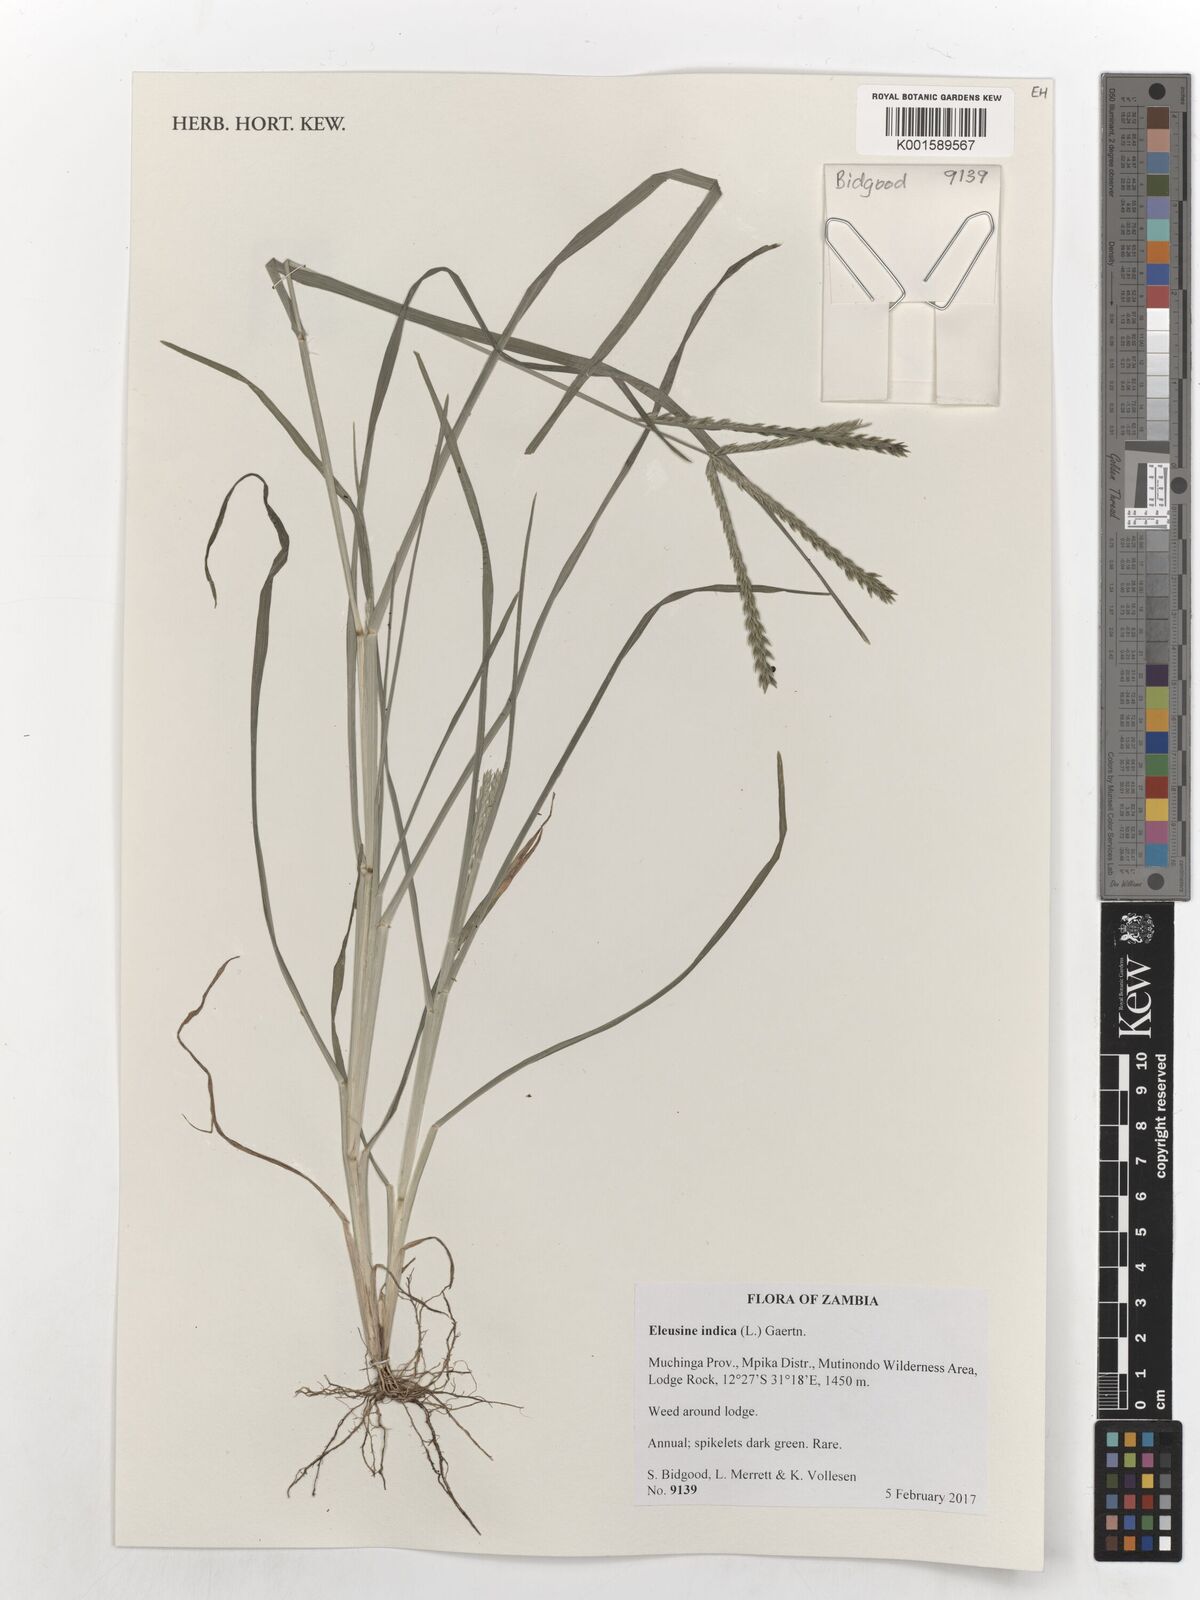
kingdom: Plantae
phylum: Tracheophyta
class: Liliopsida
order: Poales
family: Poaceae
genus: Eleusine
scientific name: Eleusine indica
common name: Yard-grass
